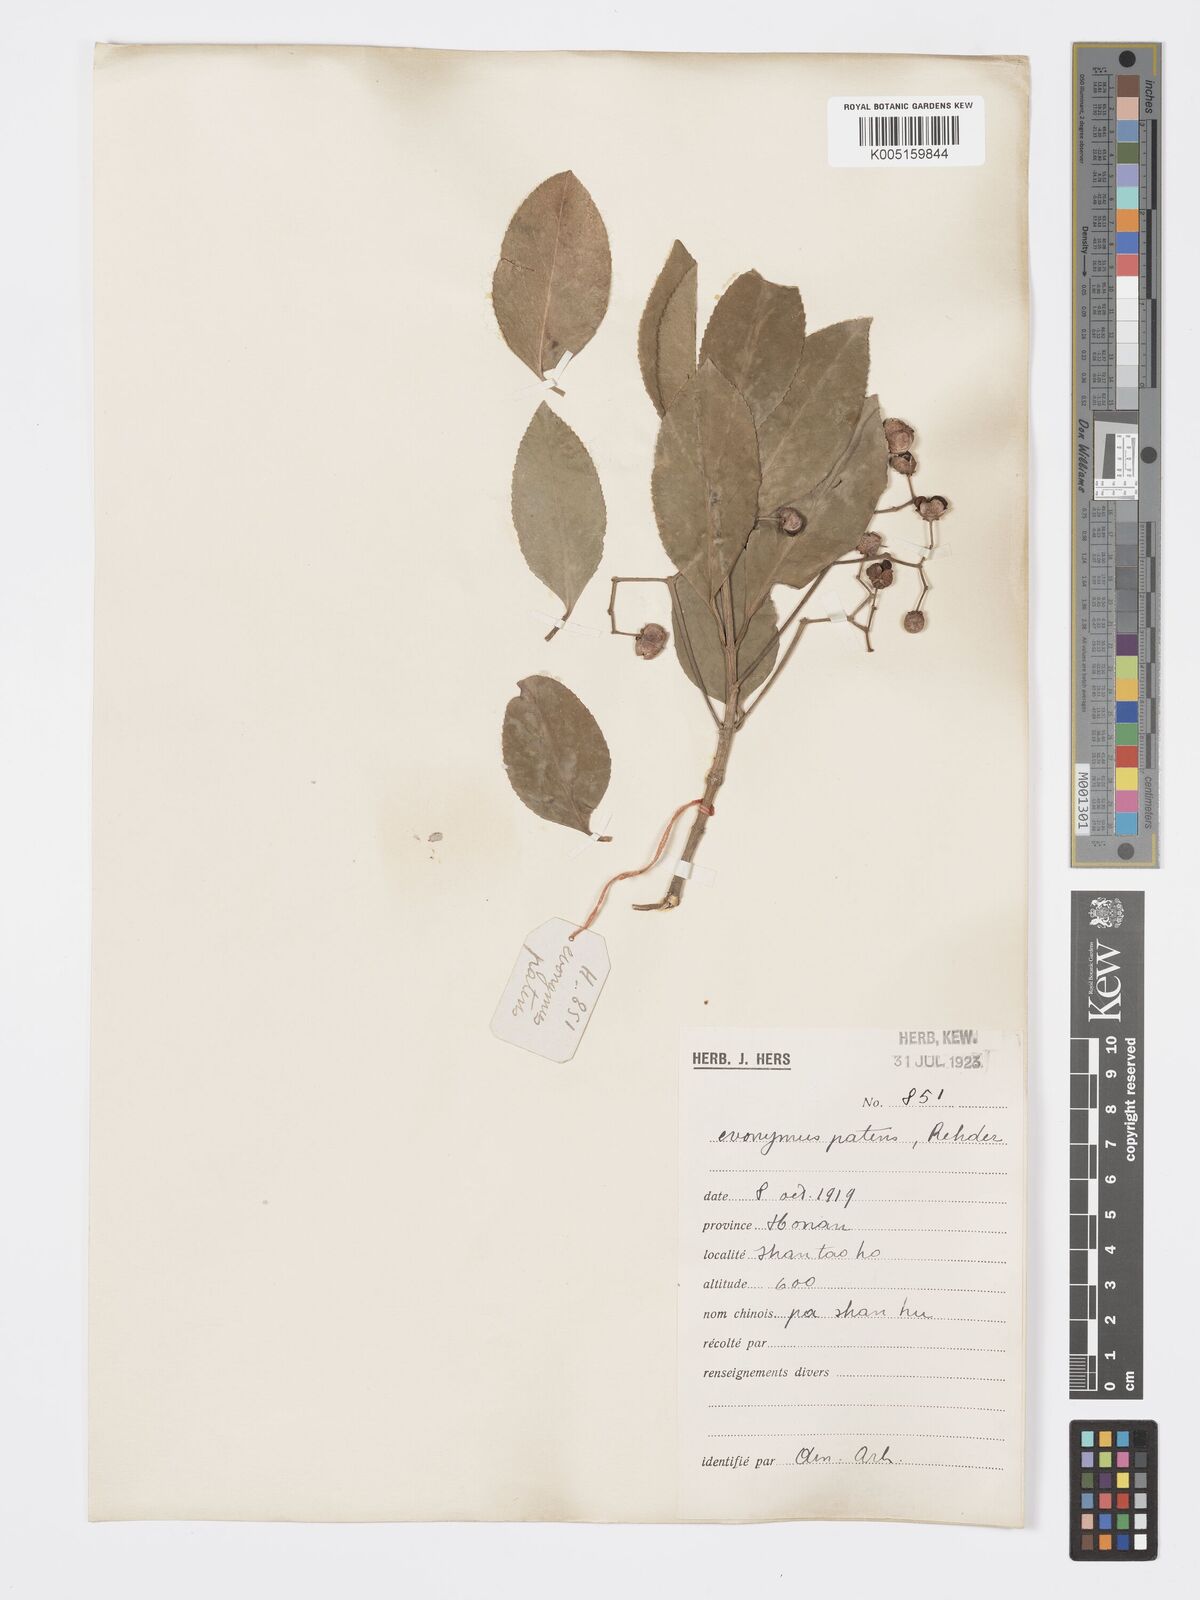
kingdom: Plantae
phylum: Tracheophyta
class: Magnoliopsida
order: Celastrales
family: Celastraceae
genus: Euonymus
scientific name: Euonymus fortunei
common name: Climbing euonymus
